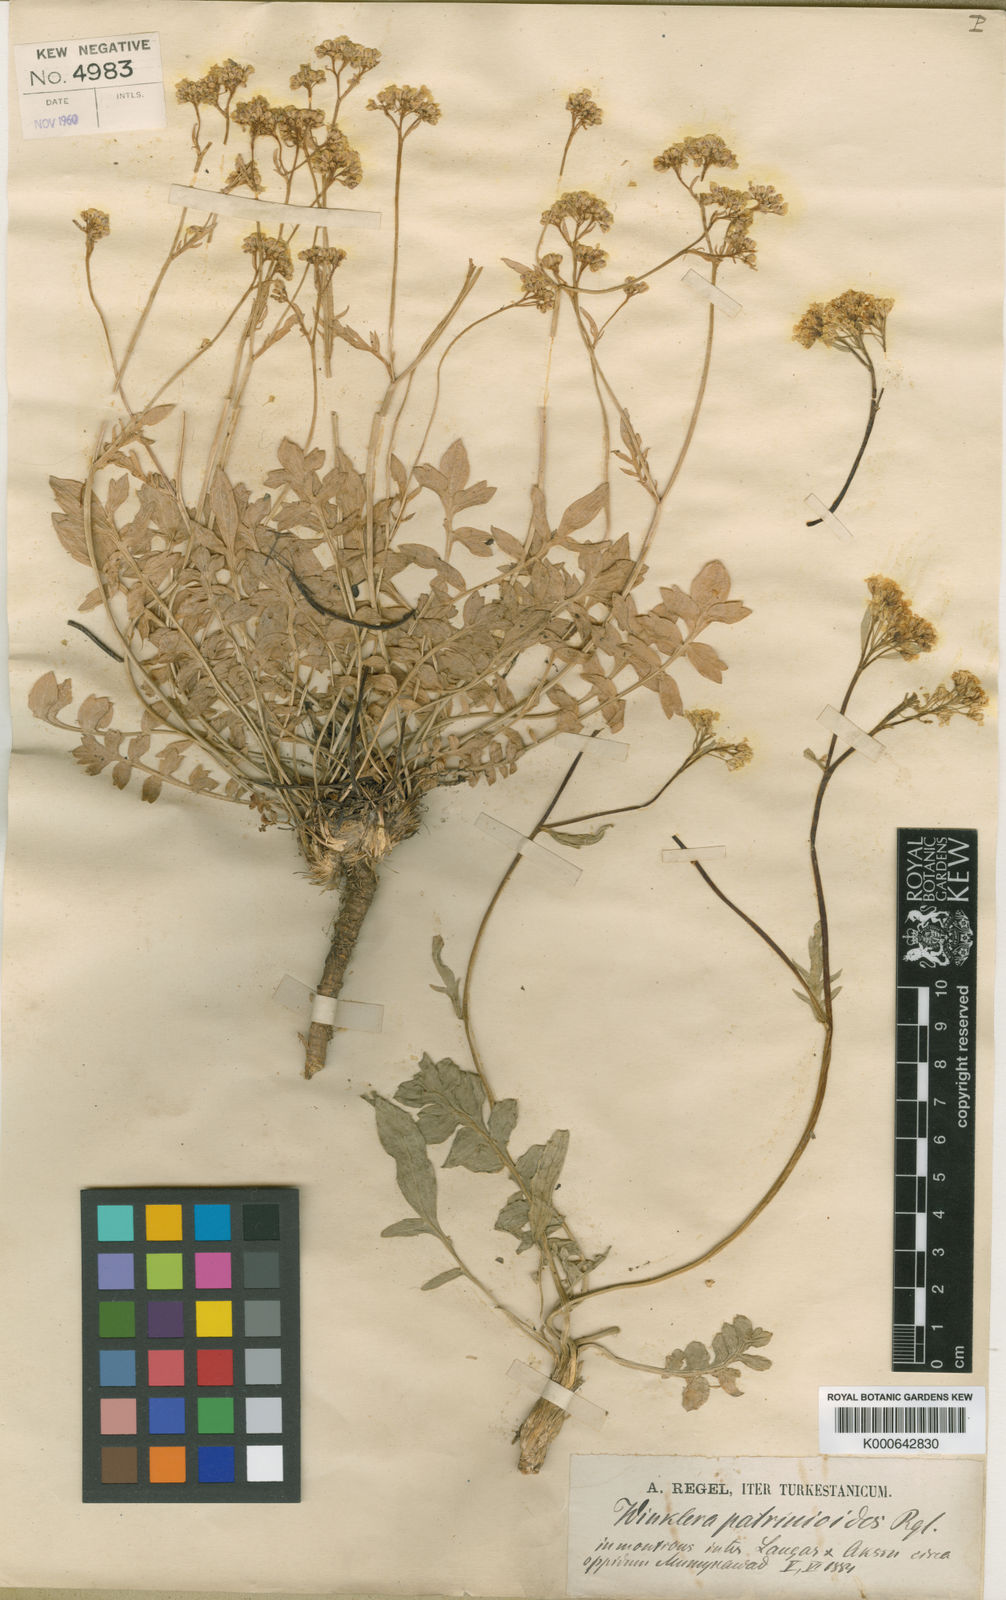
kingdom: Plantae
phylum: Tracheophyta
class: Magnoliopsida
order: Brassicales
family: Brassicaceae
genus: Lepidium
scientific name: Lepidium
